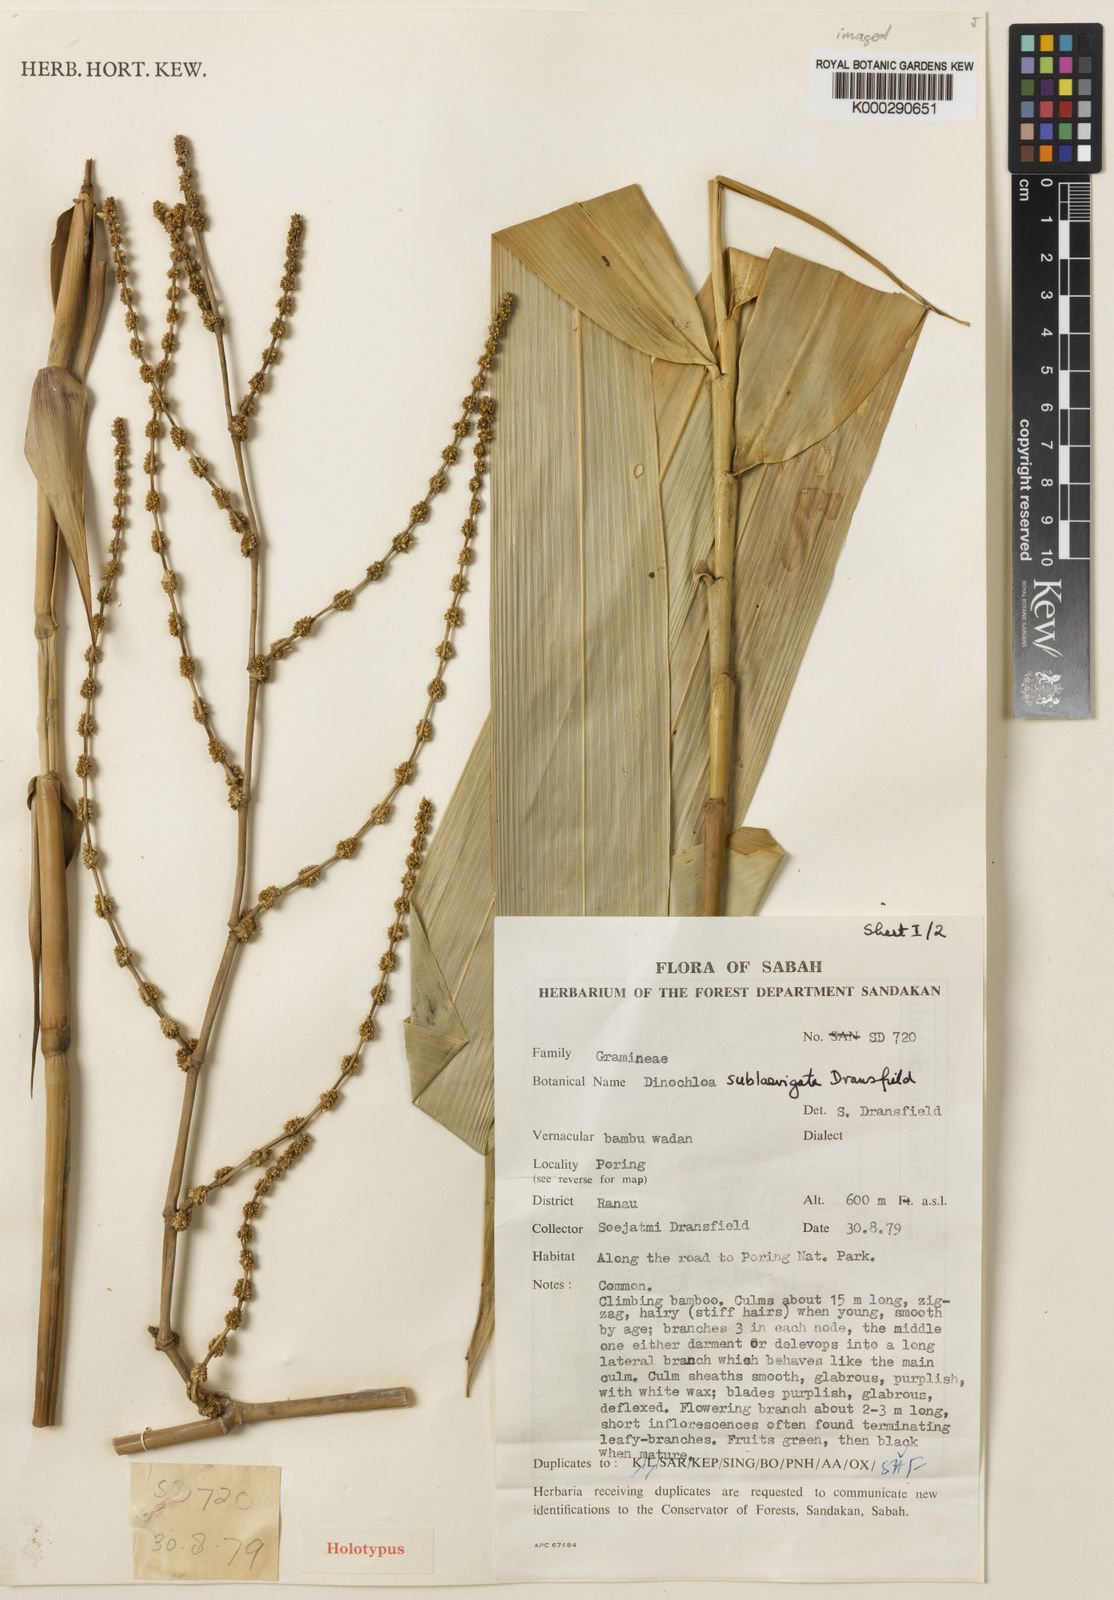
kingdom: Plantae
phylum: Tracheophyta
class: Liliopsida
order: Poales
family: Poaceae
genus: Dinochloa
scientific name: Dinochloa sublaevigata
